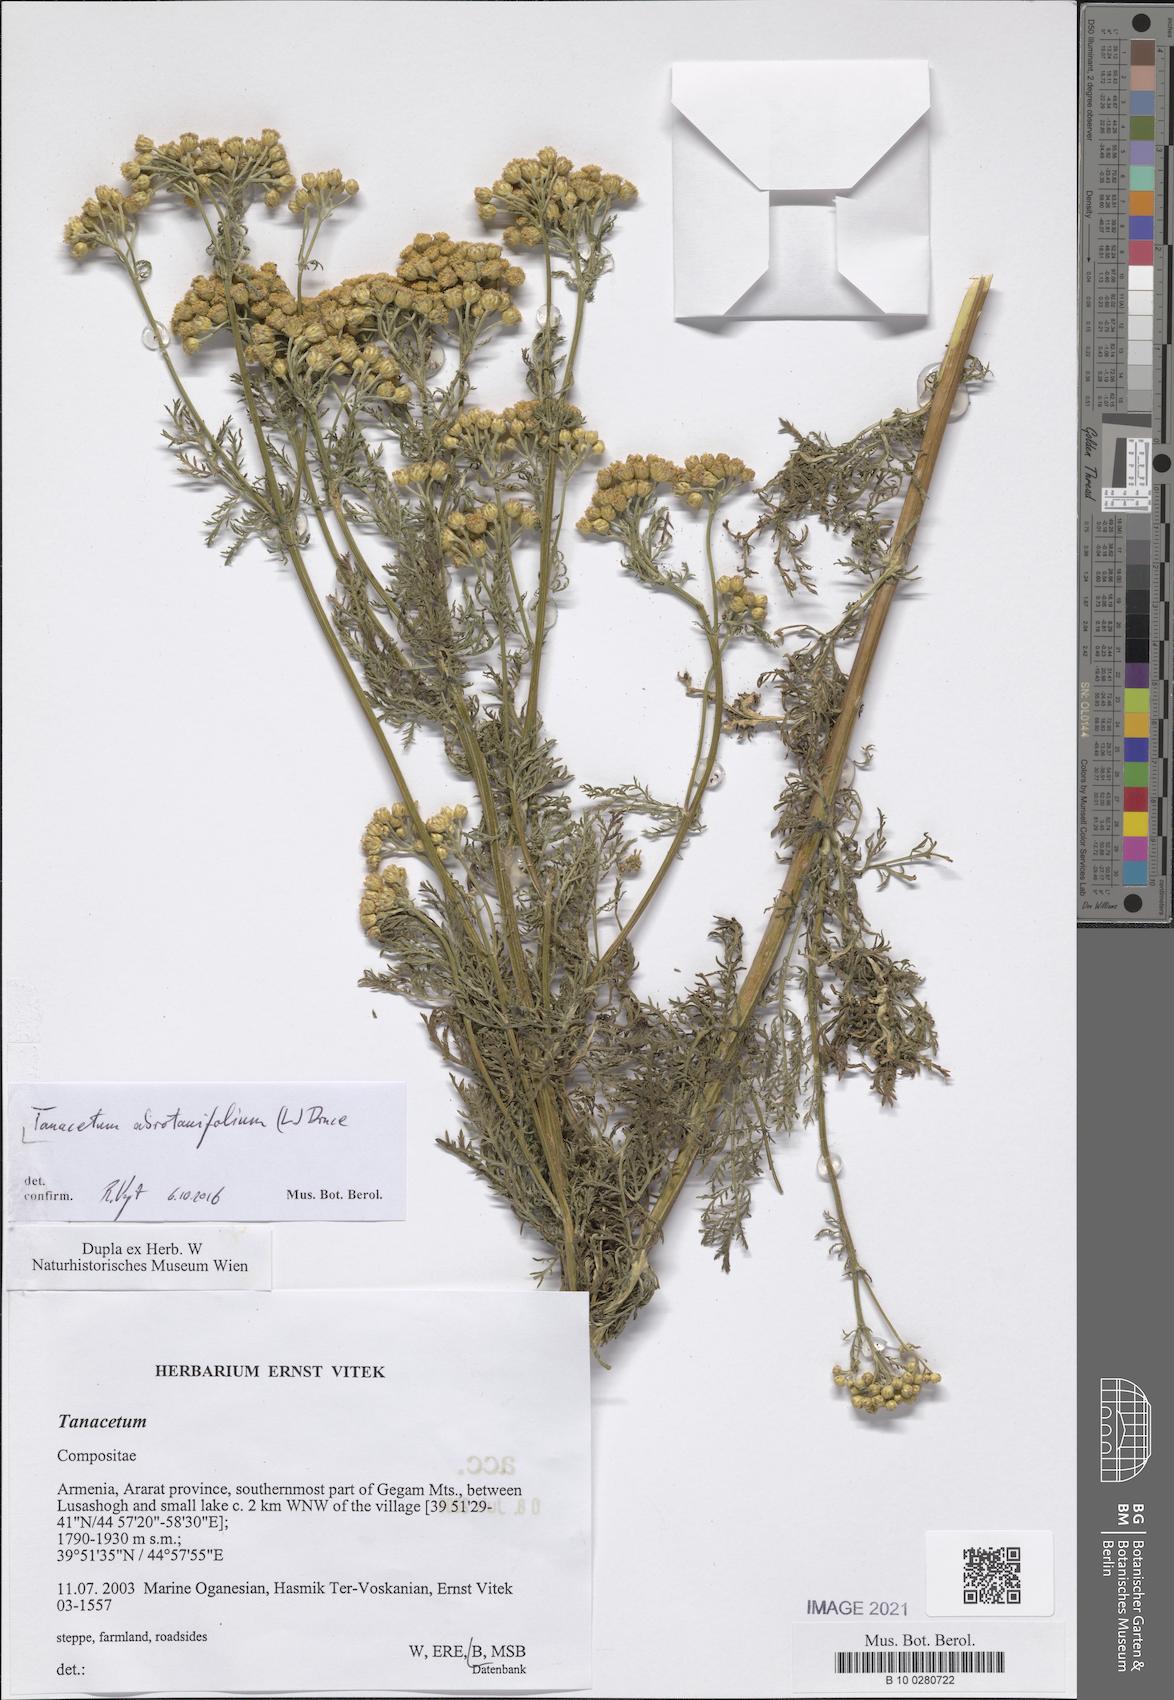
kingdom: Plantae
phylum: Tracheophyta
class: Magnoliopsida
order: Asterales
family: Asteraceae
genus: Tanacetum
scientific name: Tanacetum abrotanifolium
